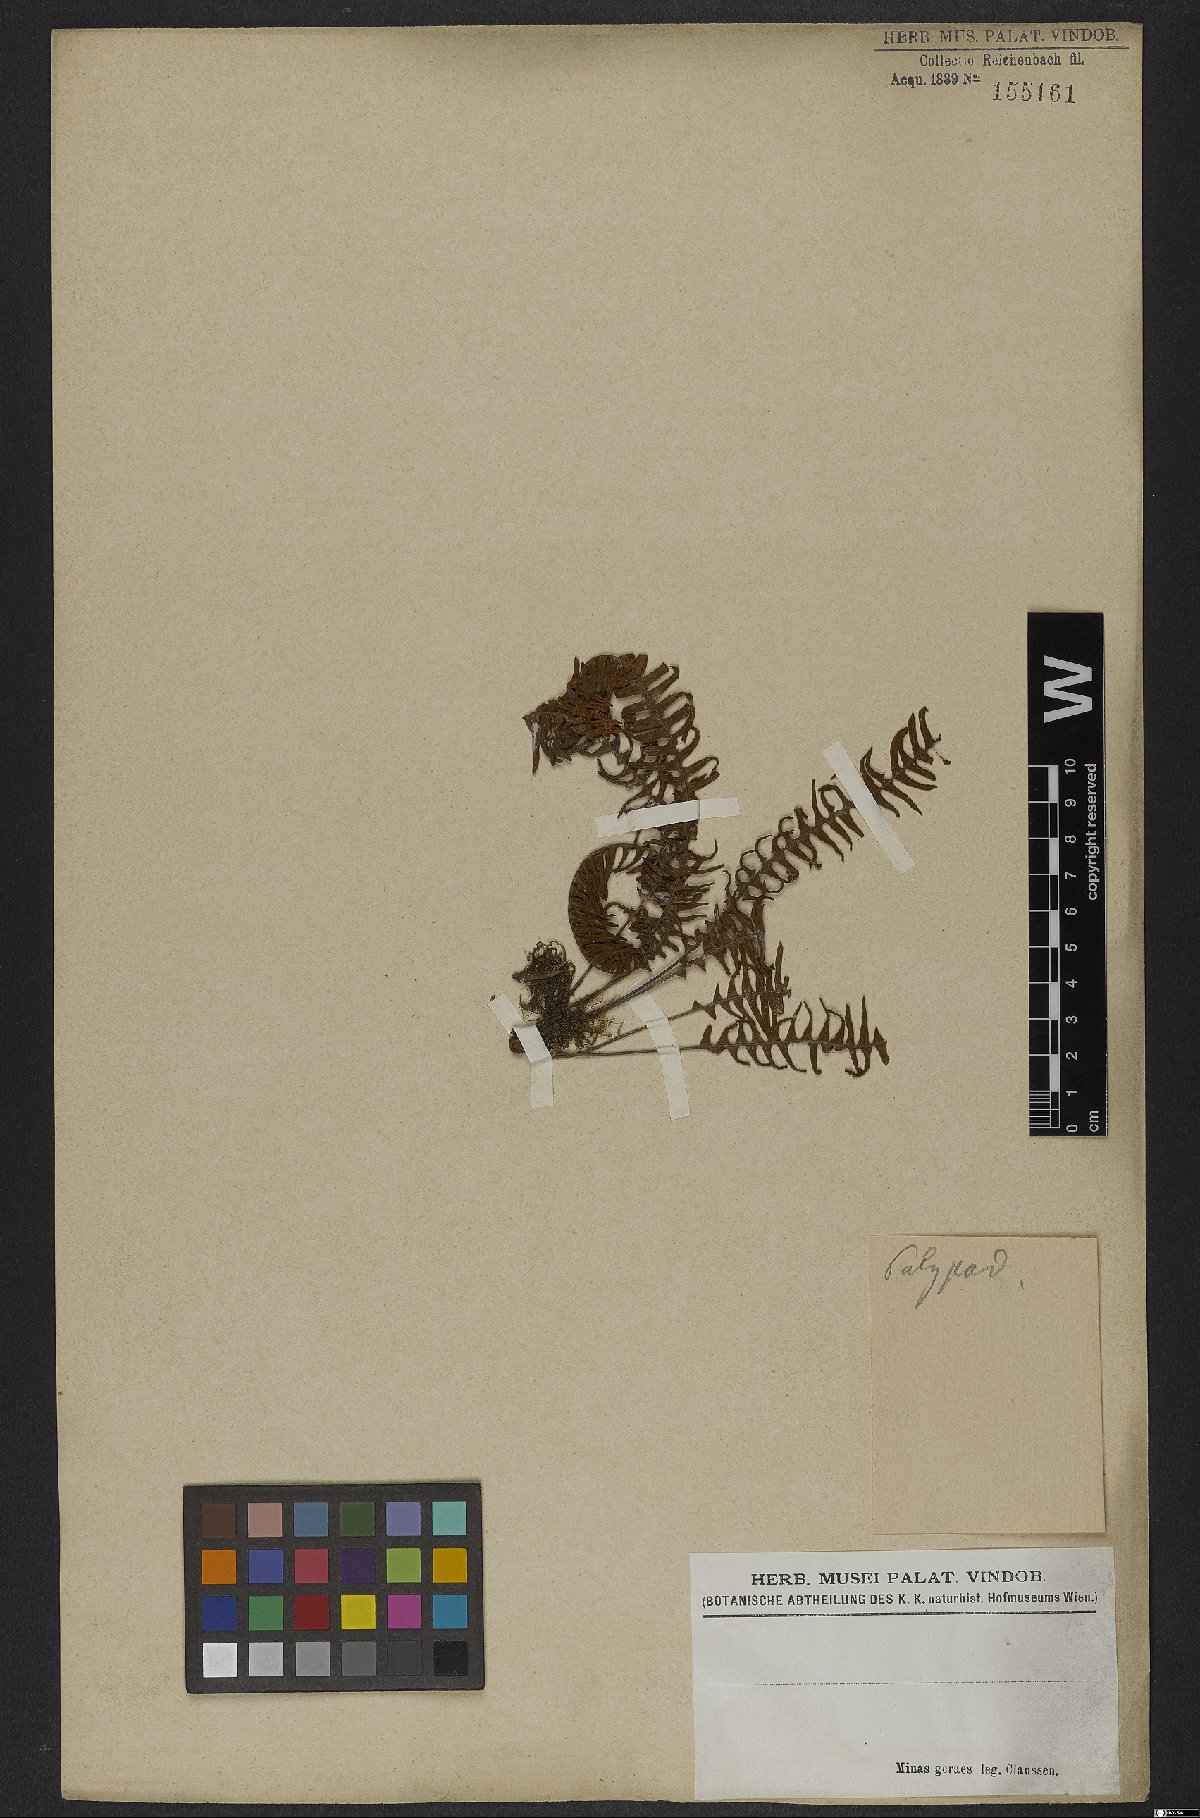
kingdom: Plantae
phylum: Tracheophyta
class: Polypodiopsida
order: Polypodiales
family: Polypodiaceae
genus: Pecluma
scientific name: Pecluma plumula
